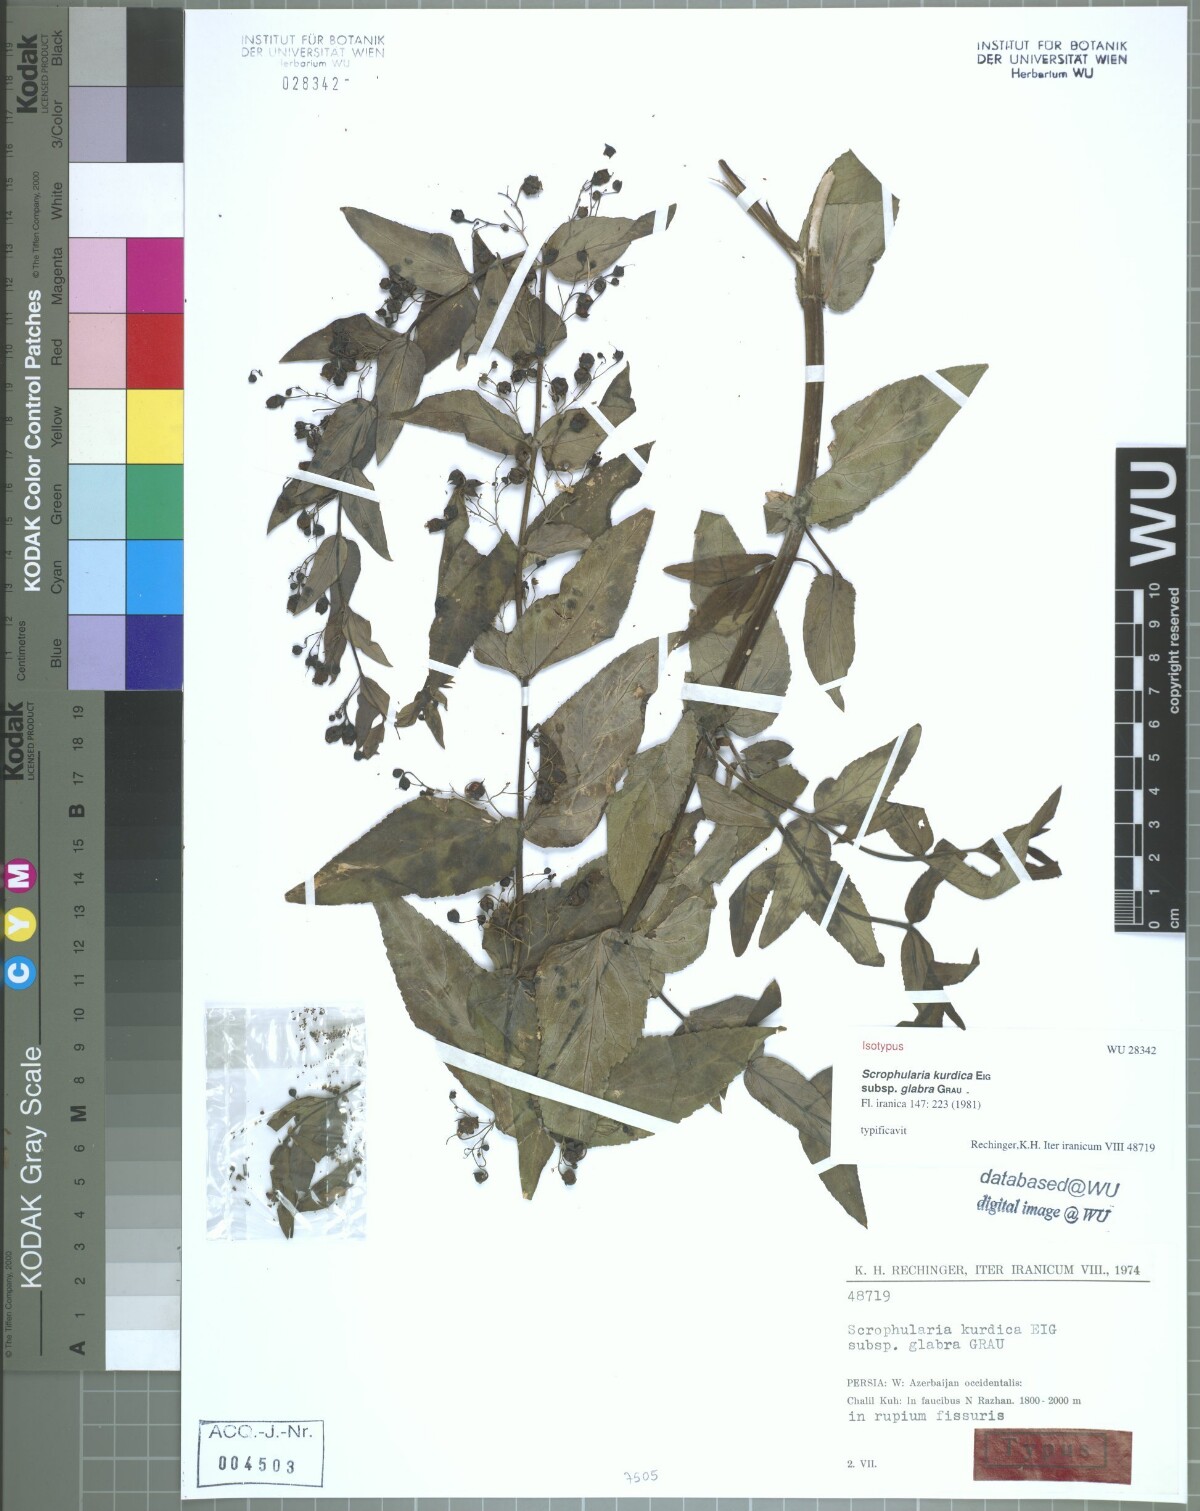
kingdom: Plantae
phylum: Tracheophyta
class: Magnoliopsida
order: Lamiales
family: Scrophulariaceae
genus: Scrophularia
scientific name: Scrophularia kurdica
